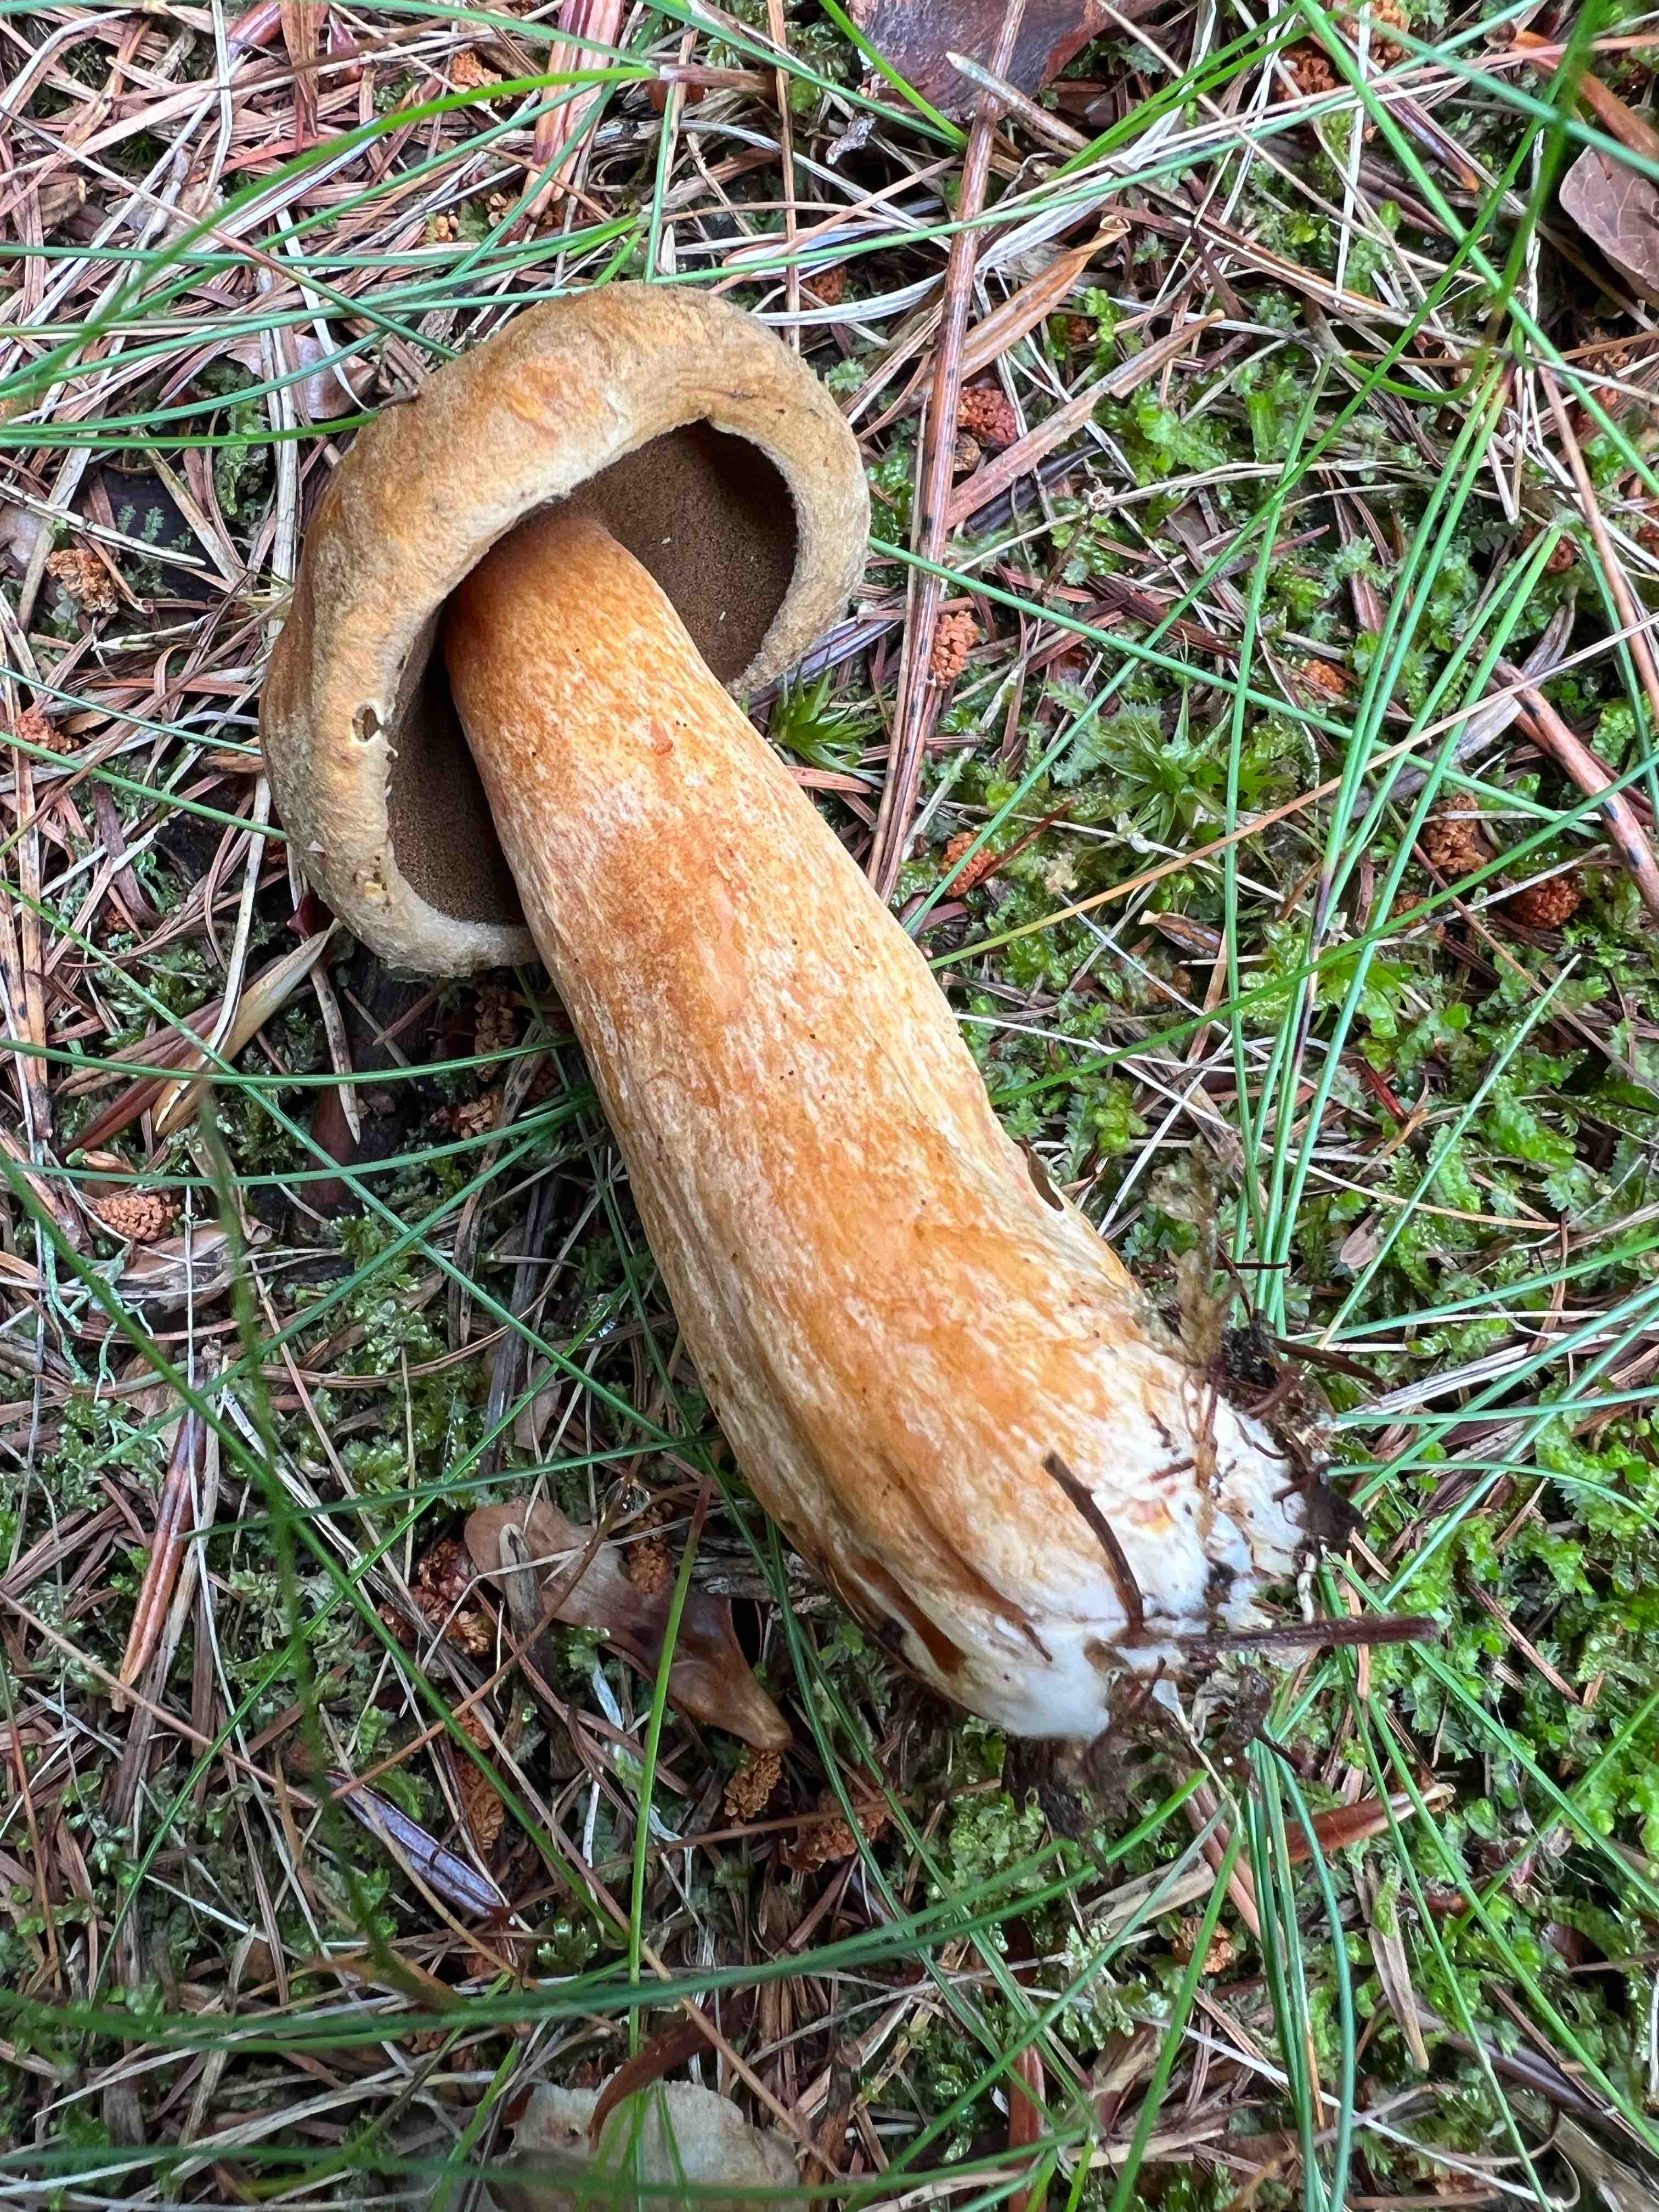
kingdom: Fungi
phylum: Basidiomycota
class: Agaricomycetes
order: Boletales
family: Suillaceae
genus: Suillus
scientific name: Suillus variegatus
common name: broget slimrørhat
